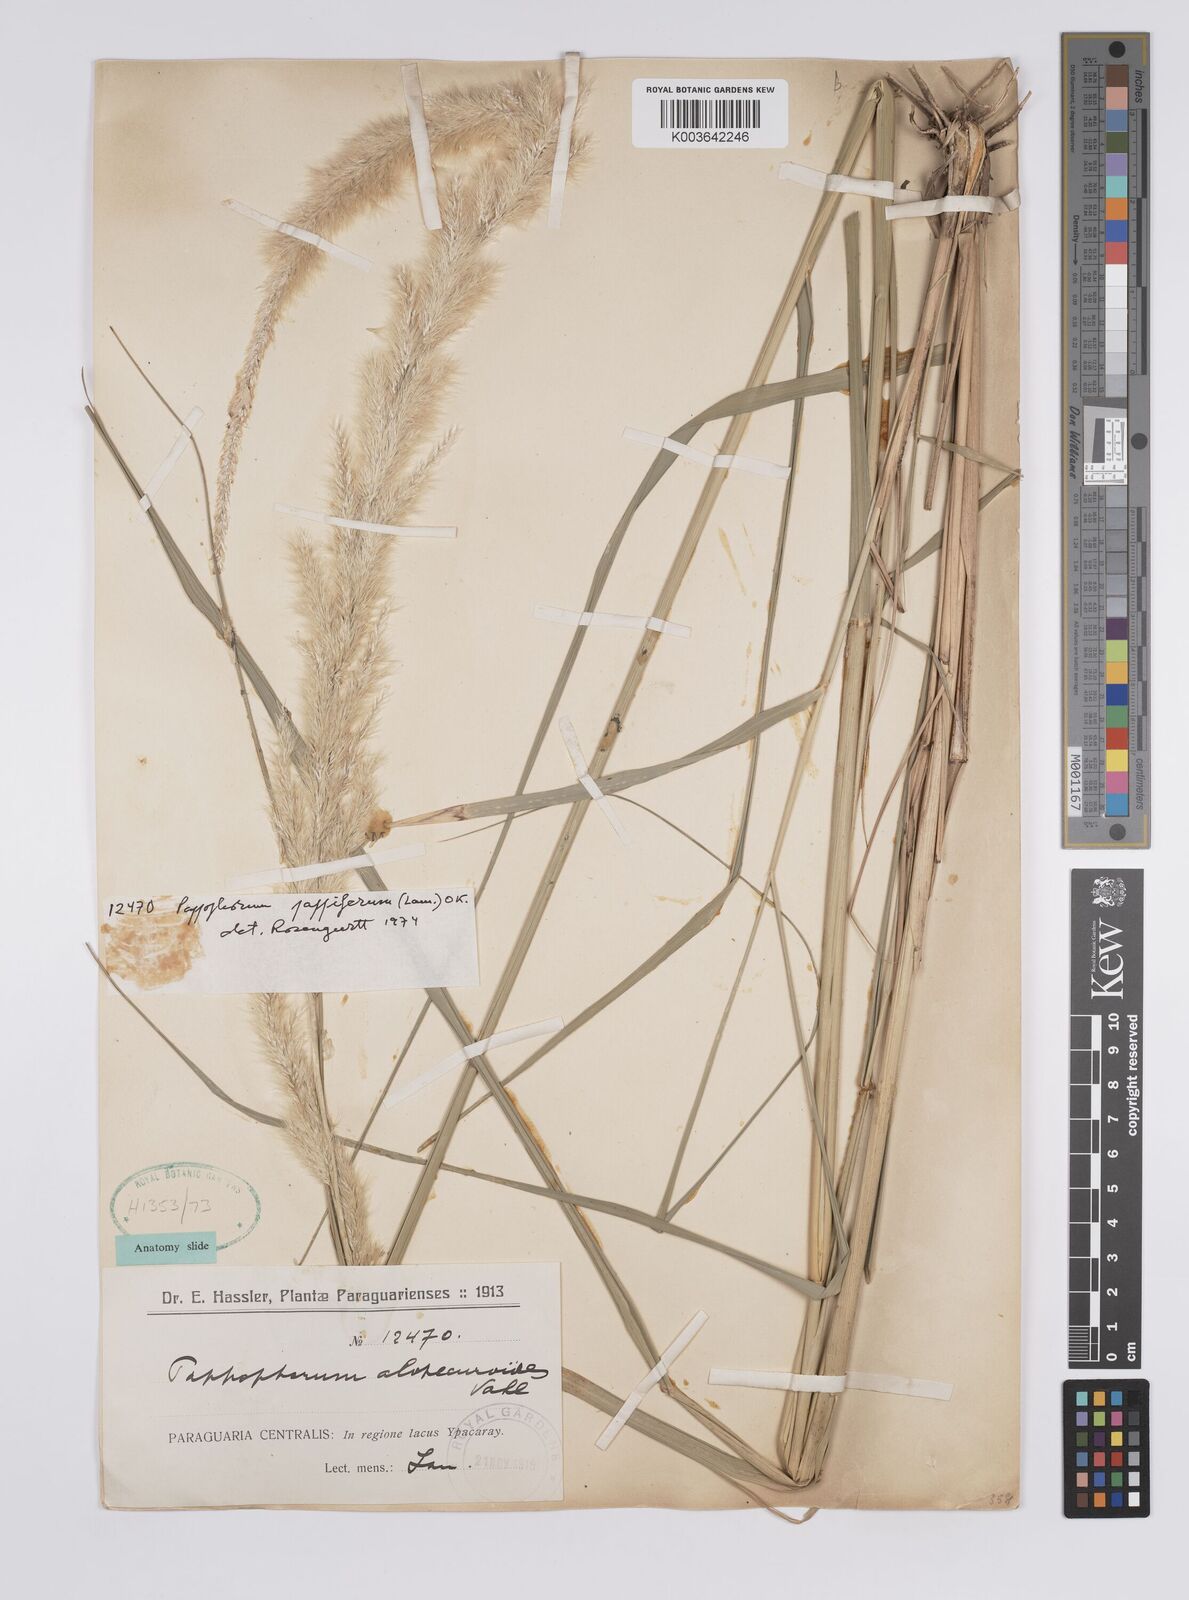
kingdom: Plantae
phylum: Tracheophyta
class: Liliopsida
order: Poales
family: Poaceae
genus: Pappophorum
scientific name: Pappophorum pappiferum
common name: Crabgrass
